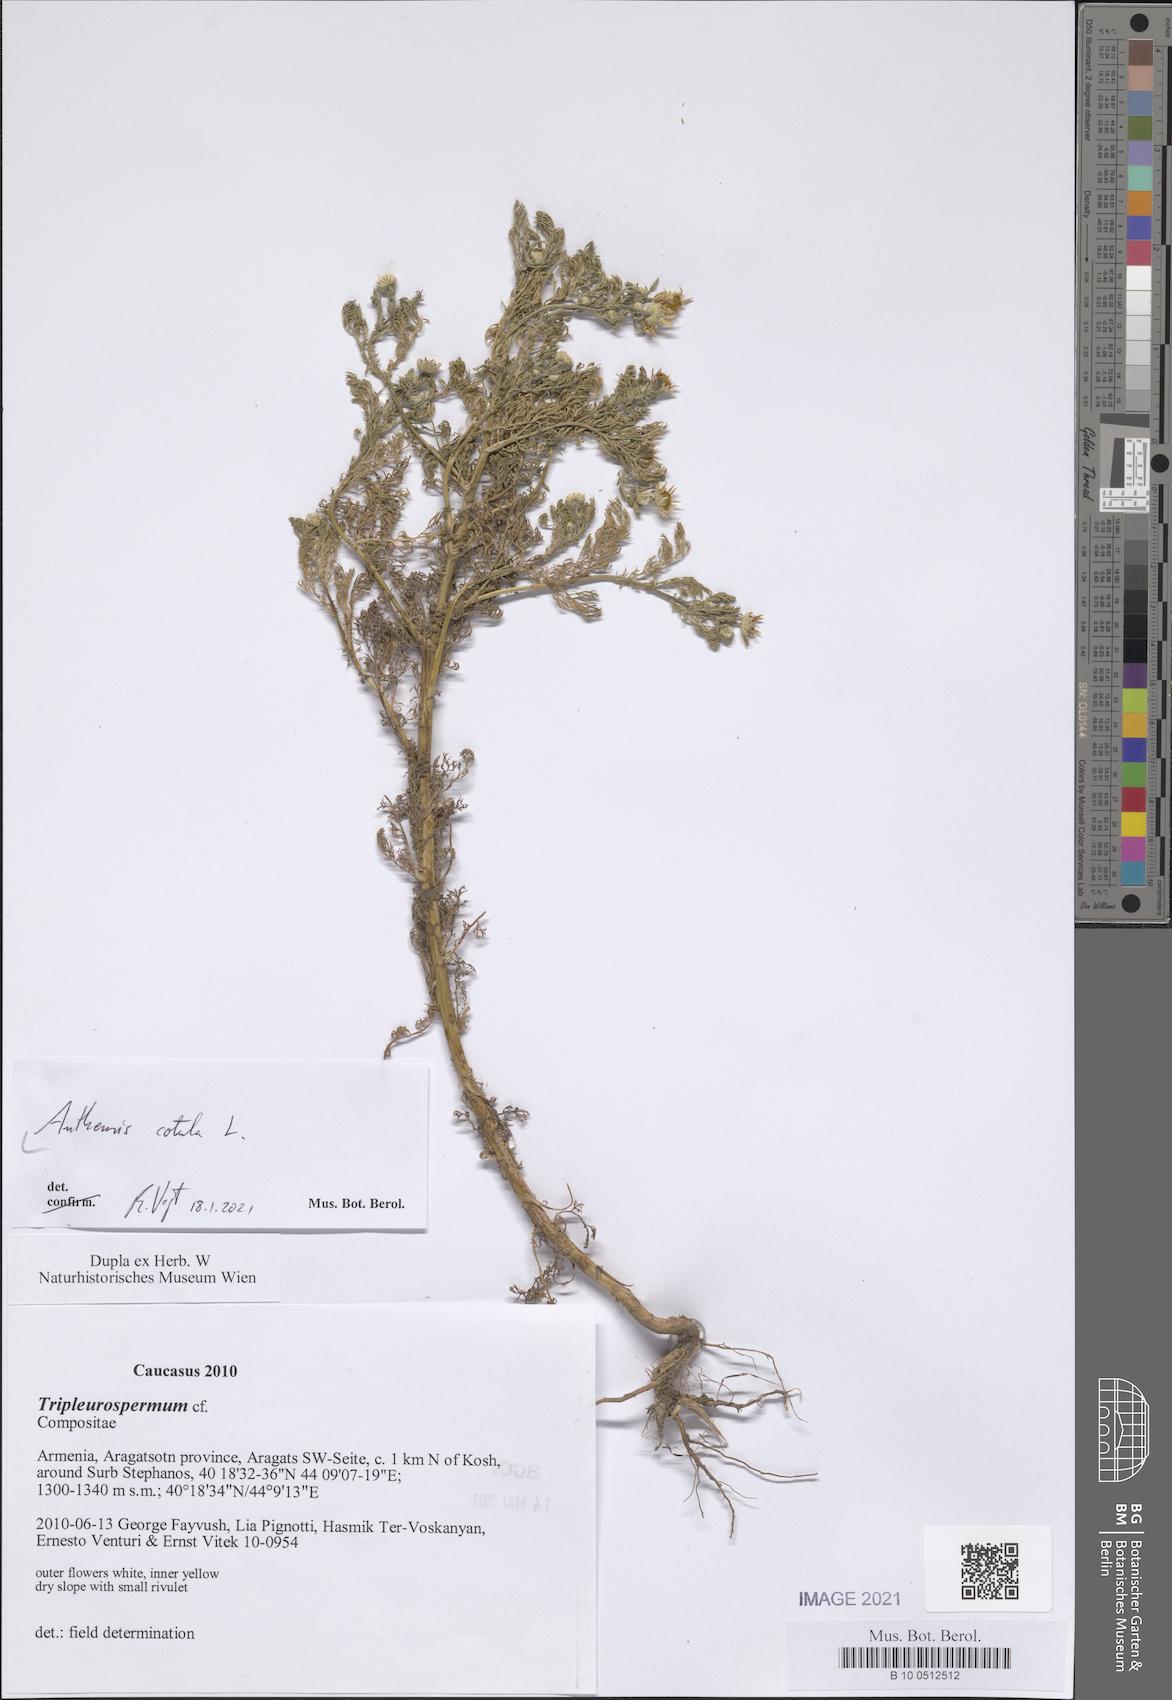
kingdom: Plantae
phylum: Tracheophyta
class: Magnoliopsida
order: Asterales
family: Asteraceae
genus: Anthemis
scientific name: Anthemis cotula
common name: Stinking chamomile
